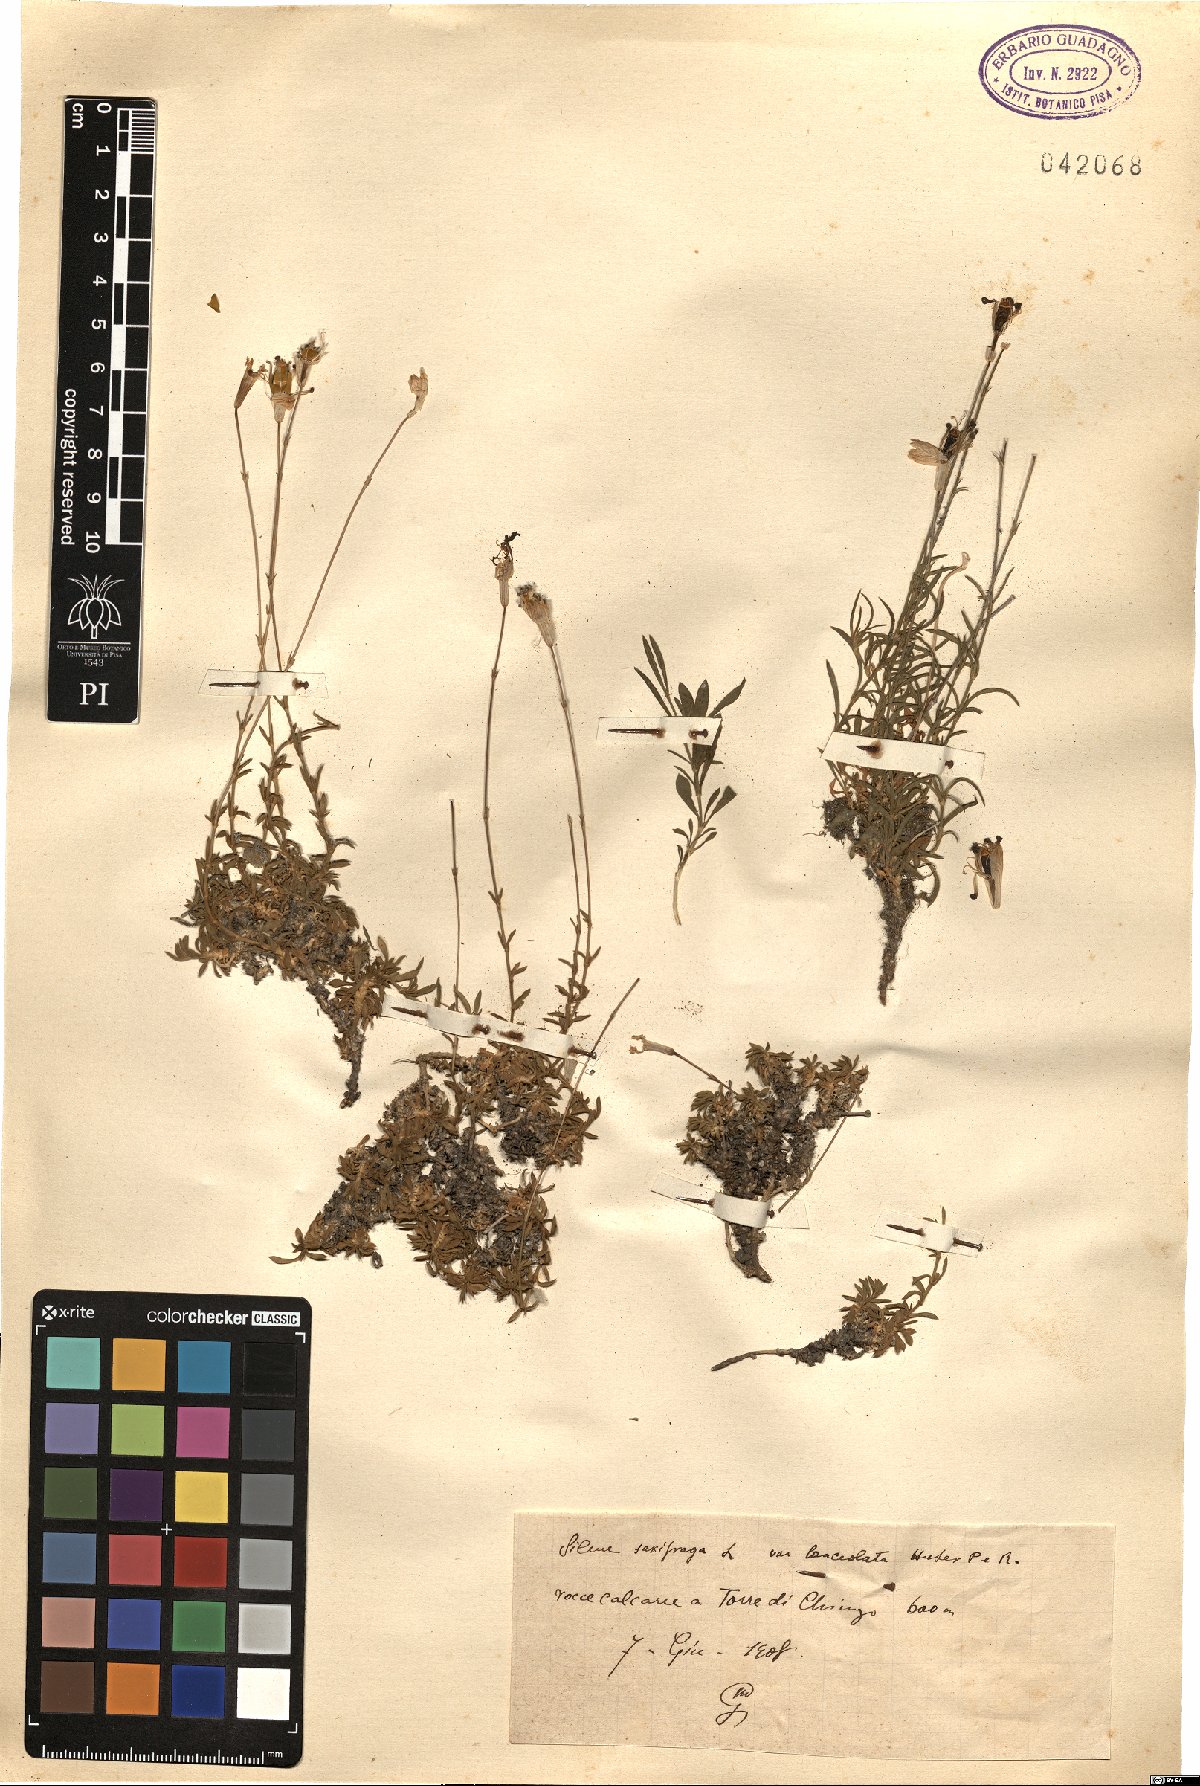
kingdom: Plantae
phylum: Tracheophyta
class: Magnoliopsida
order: Caryophyllales
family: Caryophyllaceae
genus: Silene
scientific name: Silene saxifraga
